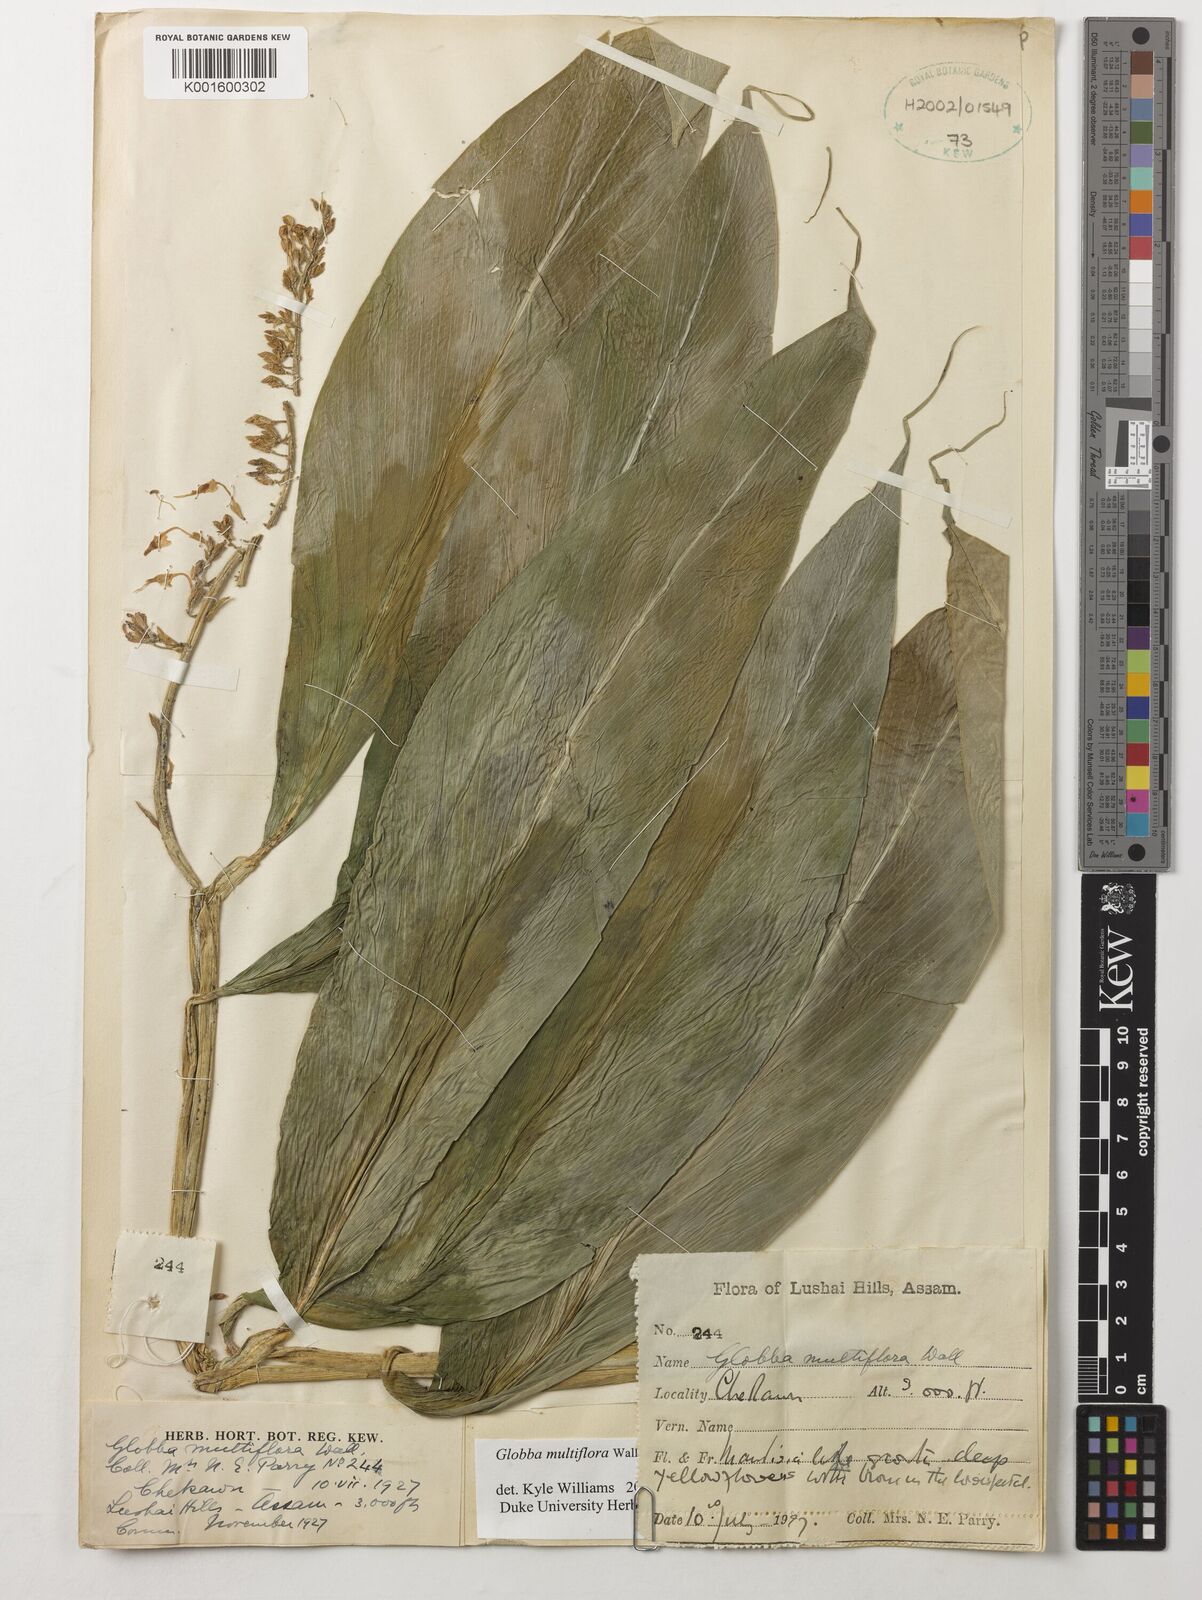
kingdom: Plantae
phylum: Tracheophyta
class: Liliopsida
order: Zingiberales
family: Zingiberaceae
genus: Globba
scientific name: Globba multiflora
